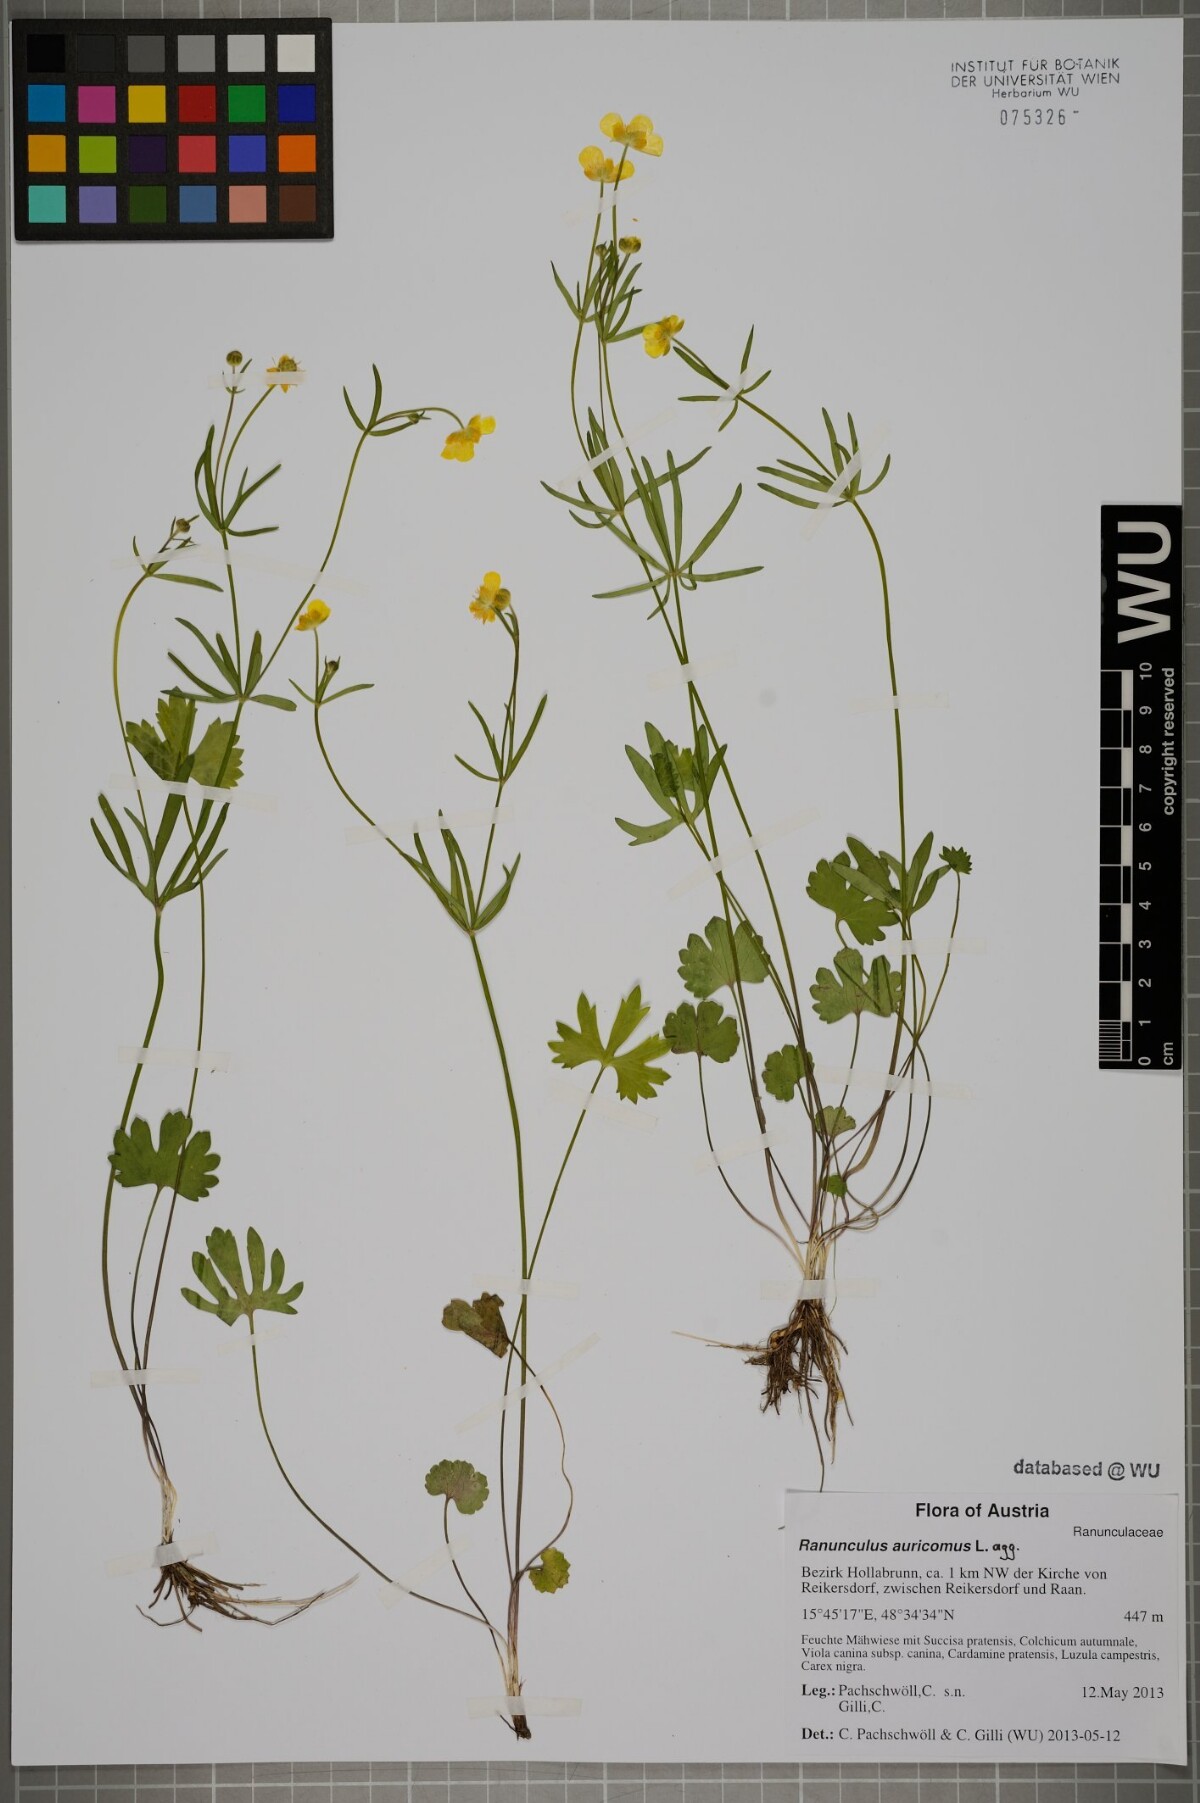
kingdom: Plantae
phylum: Tracheophyta
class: Magnoliopsida
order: Ranunculales
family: Ranunculaceae
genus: Ranunculus
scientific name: Ranunculus auricomus
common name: Goldilocks buttercup
